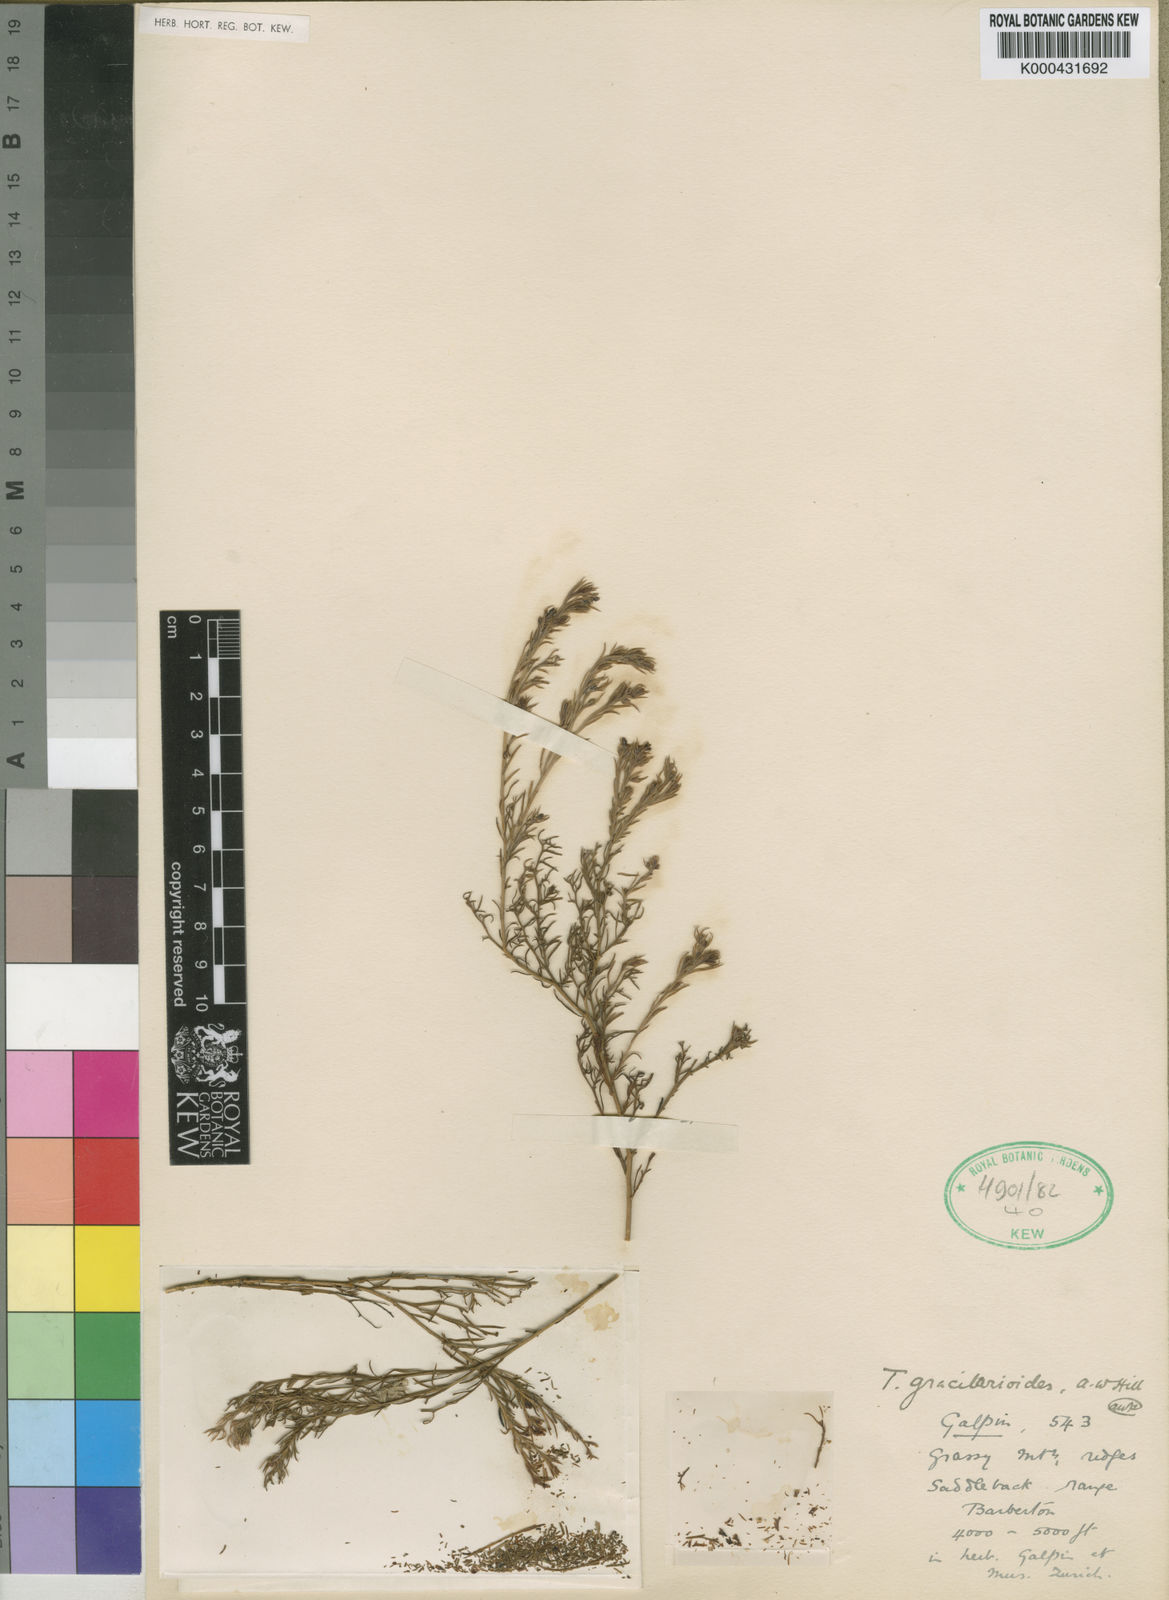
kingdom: Plantae
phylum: Tracheophyta
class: Magnoliopsida
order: Santalales
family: Thesiaceae
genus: Thesium
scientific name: Thesium gracilarioides
